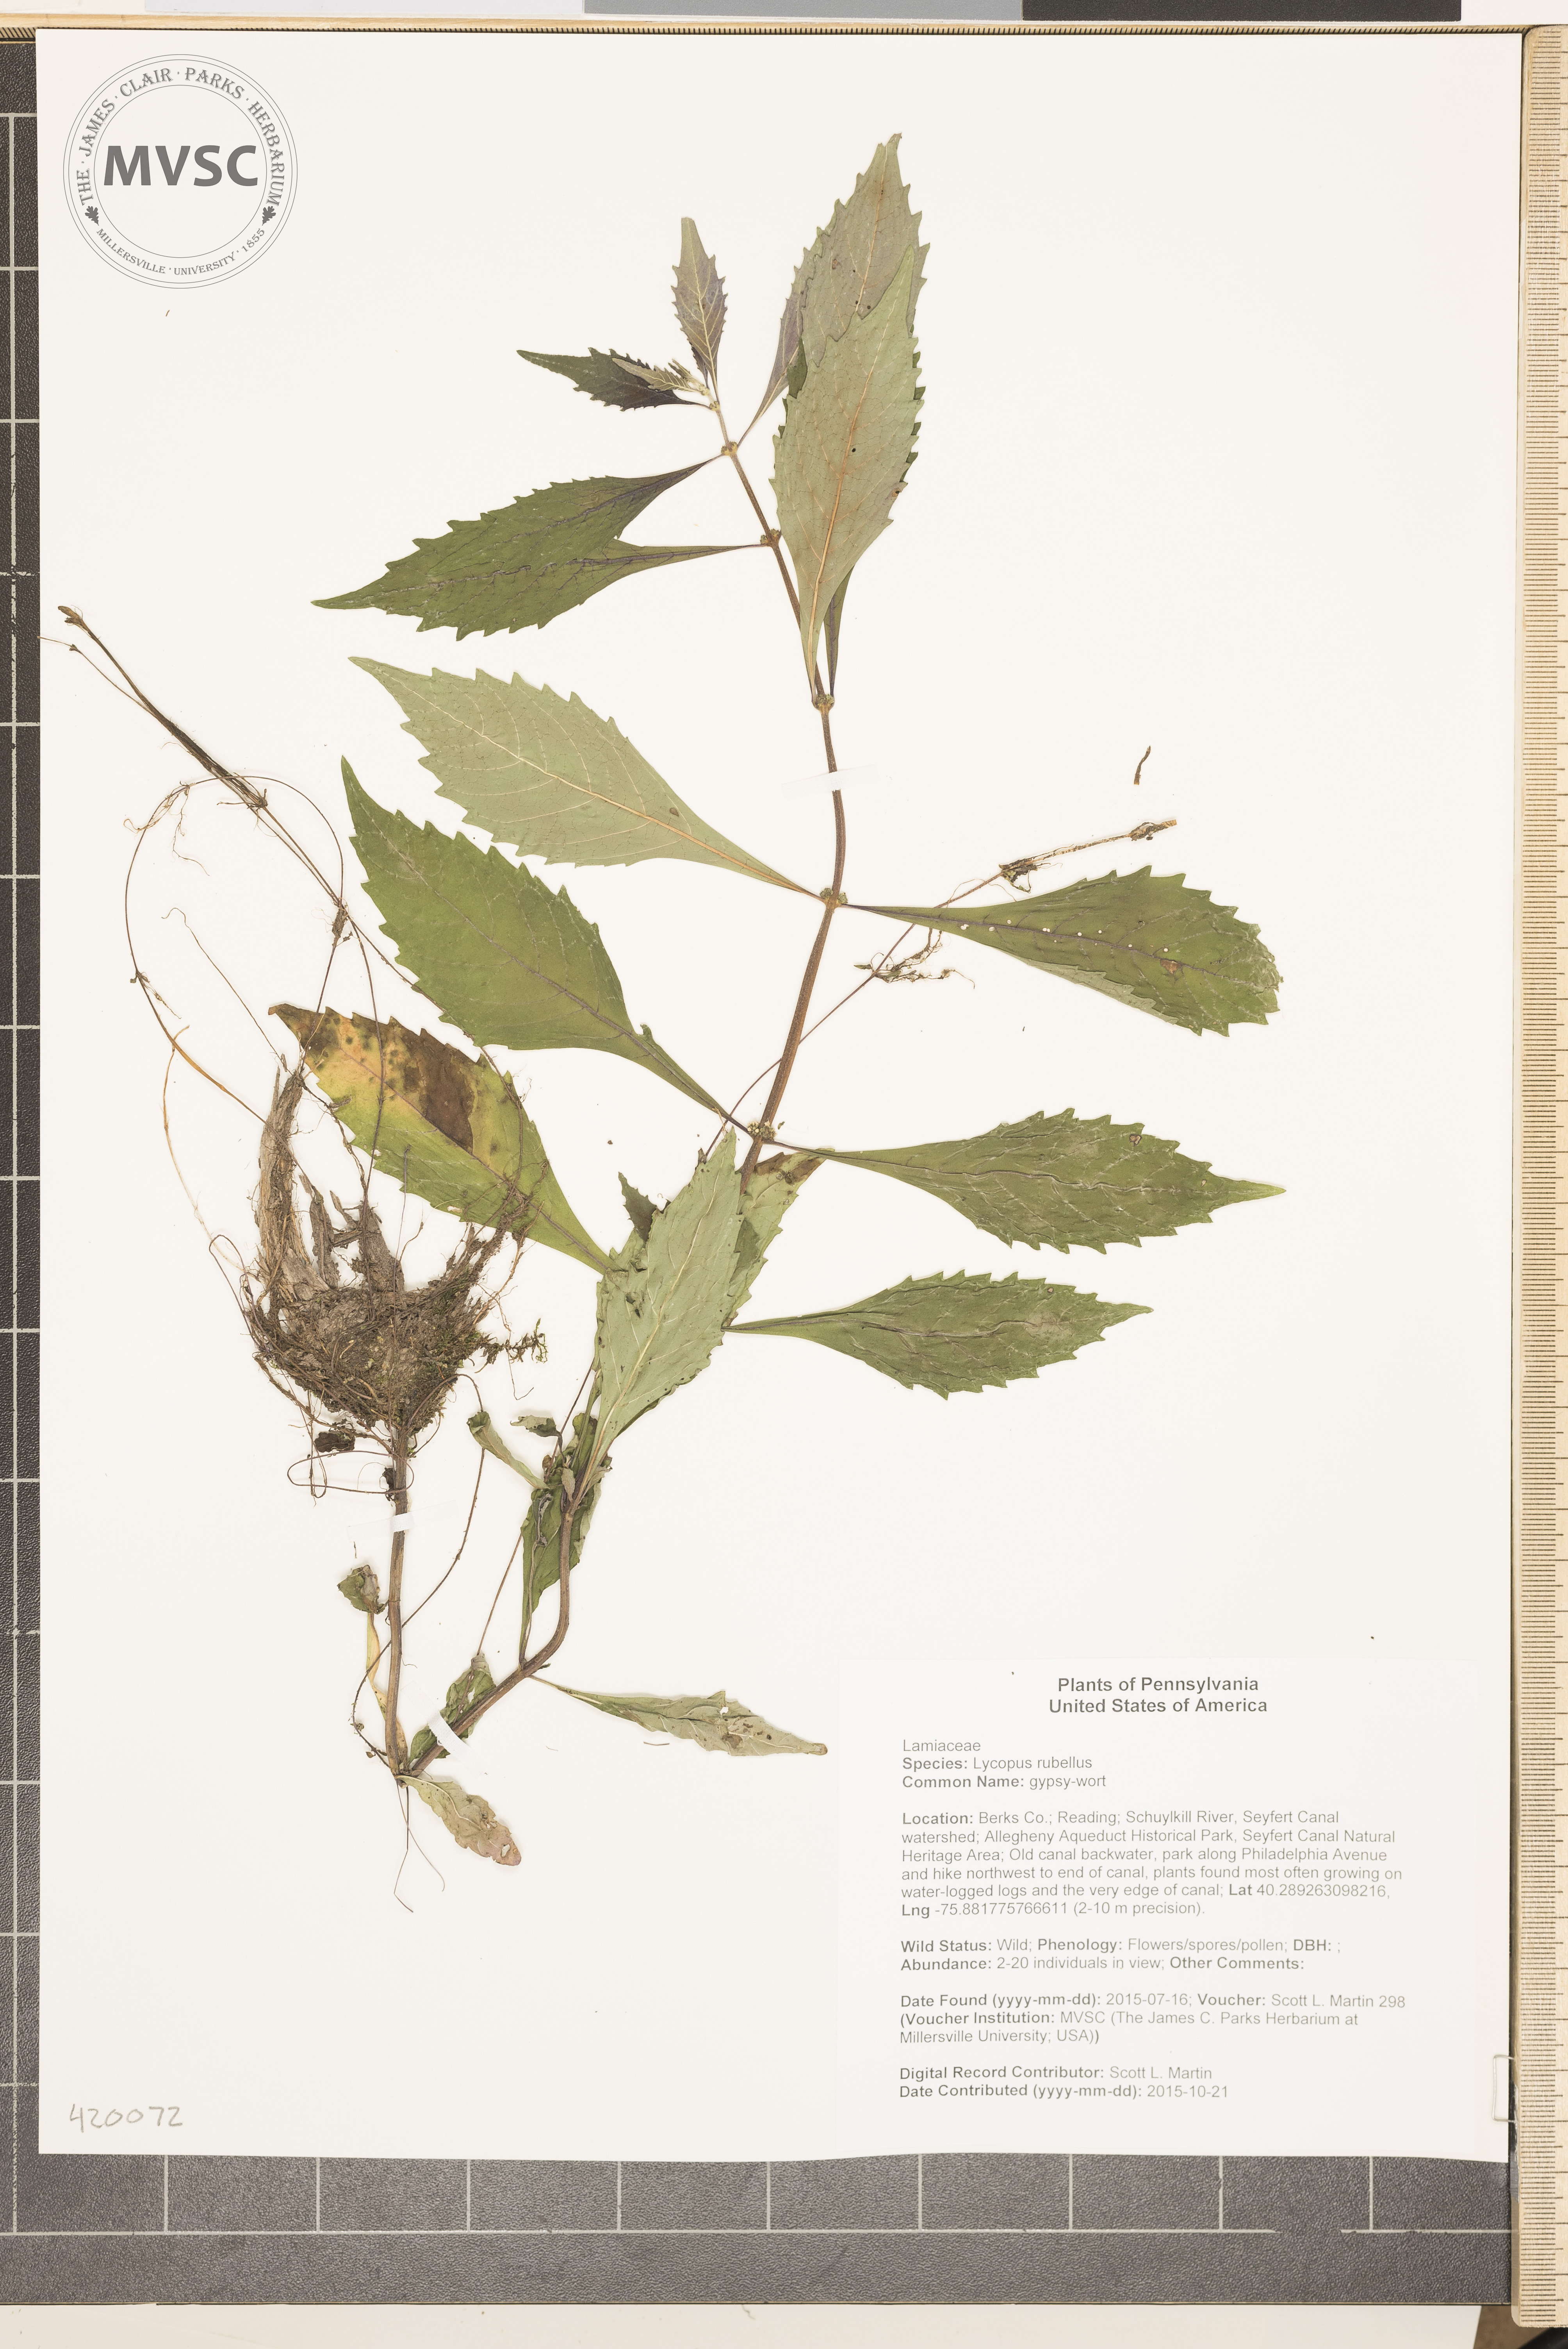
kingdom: Plantae
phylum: Tracheophyta
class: Magnoliopsida
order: Lamiales
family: Lamiaceae
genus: Lycopus
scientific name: Lycopus rubellus
